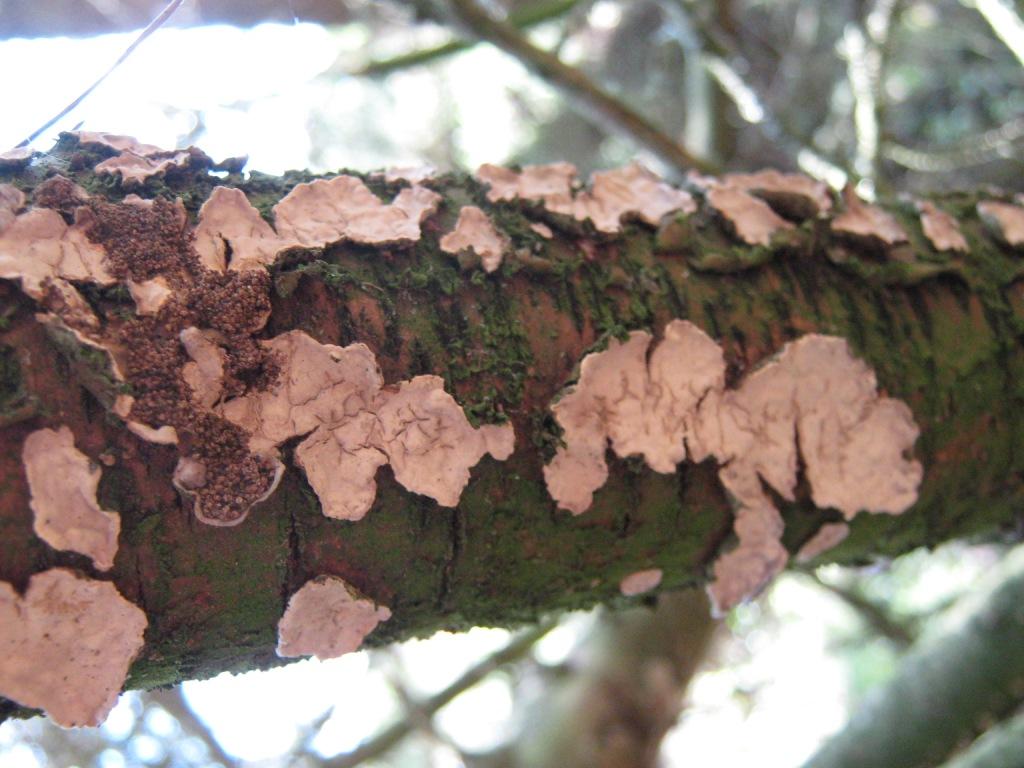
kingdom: Fungi
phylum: Basidiomycota
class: Agaricomycetes
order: Russulales
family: Stereaceae
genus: Stereum
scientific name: Stereum rugosum
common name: rynket lædersvamp
